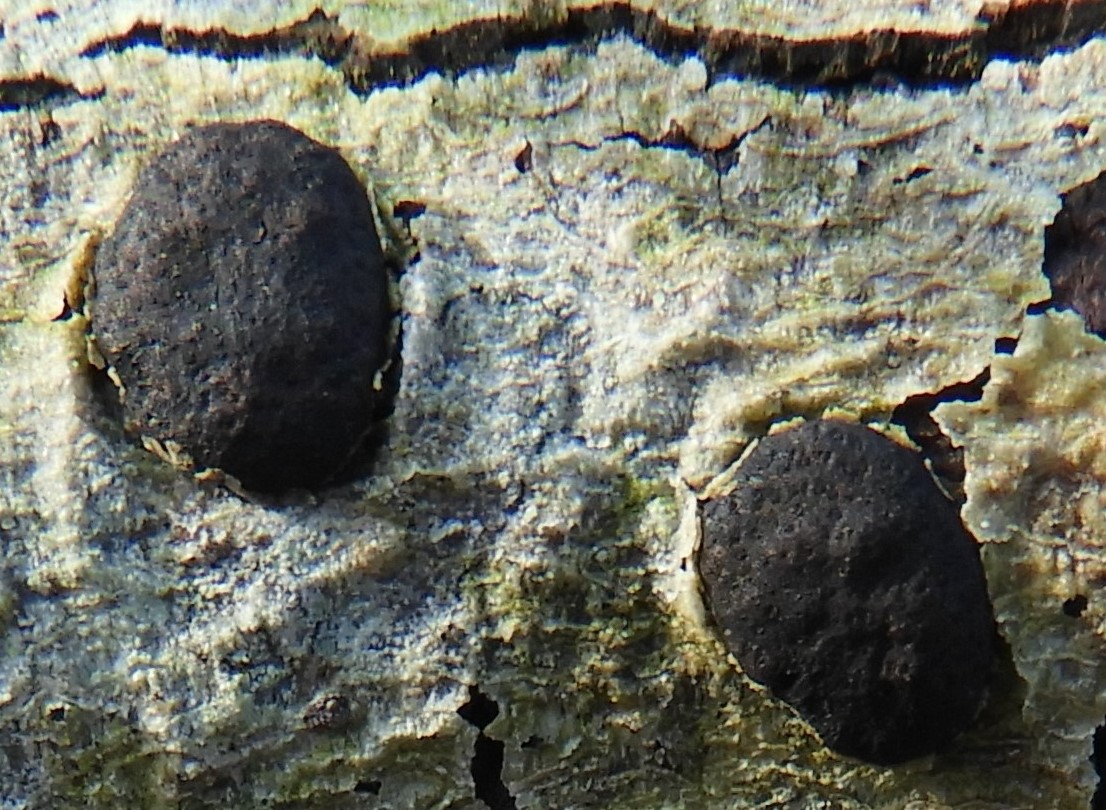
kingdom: Fungi
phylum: Ascomycota
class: Sordariomycetes
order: Xylariales
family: Diatrypaceae
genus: Diatrype
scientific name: Diatrype bullata
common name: pile-kulskorpe
